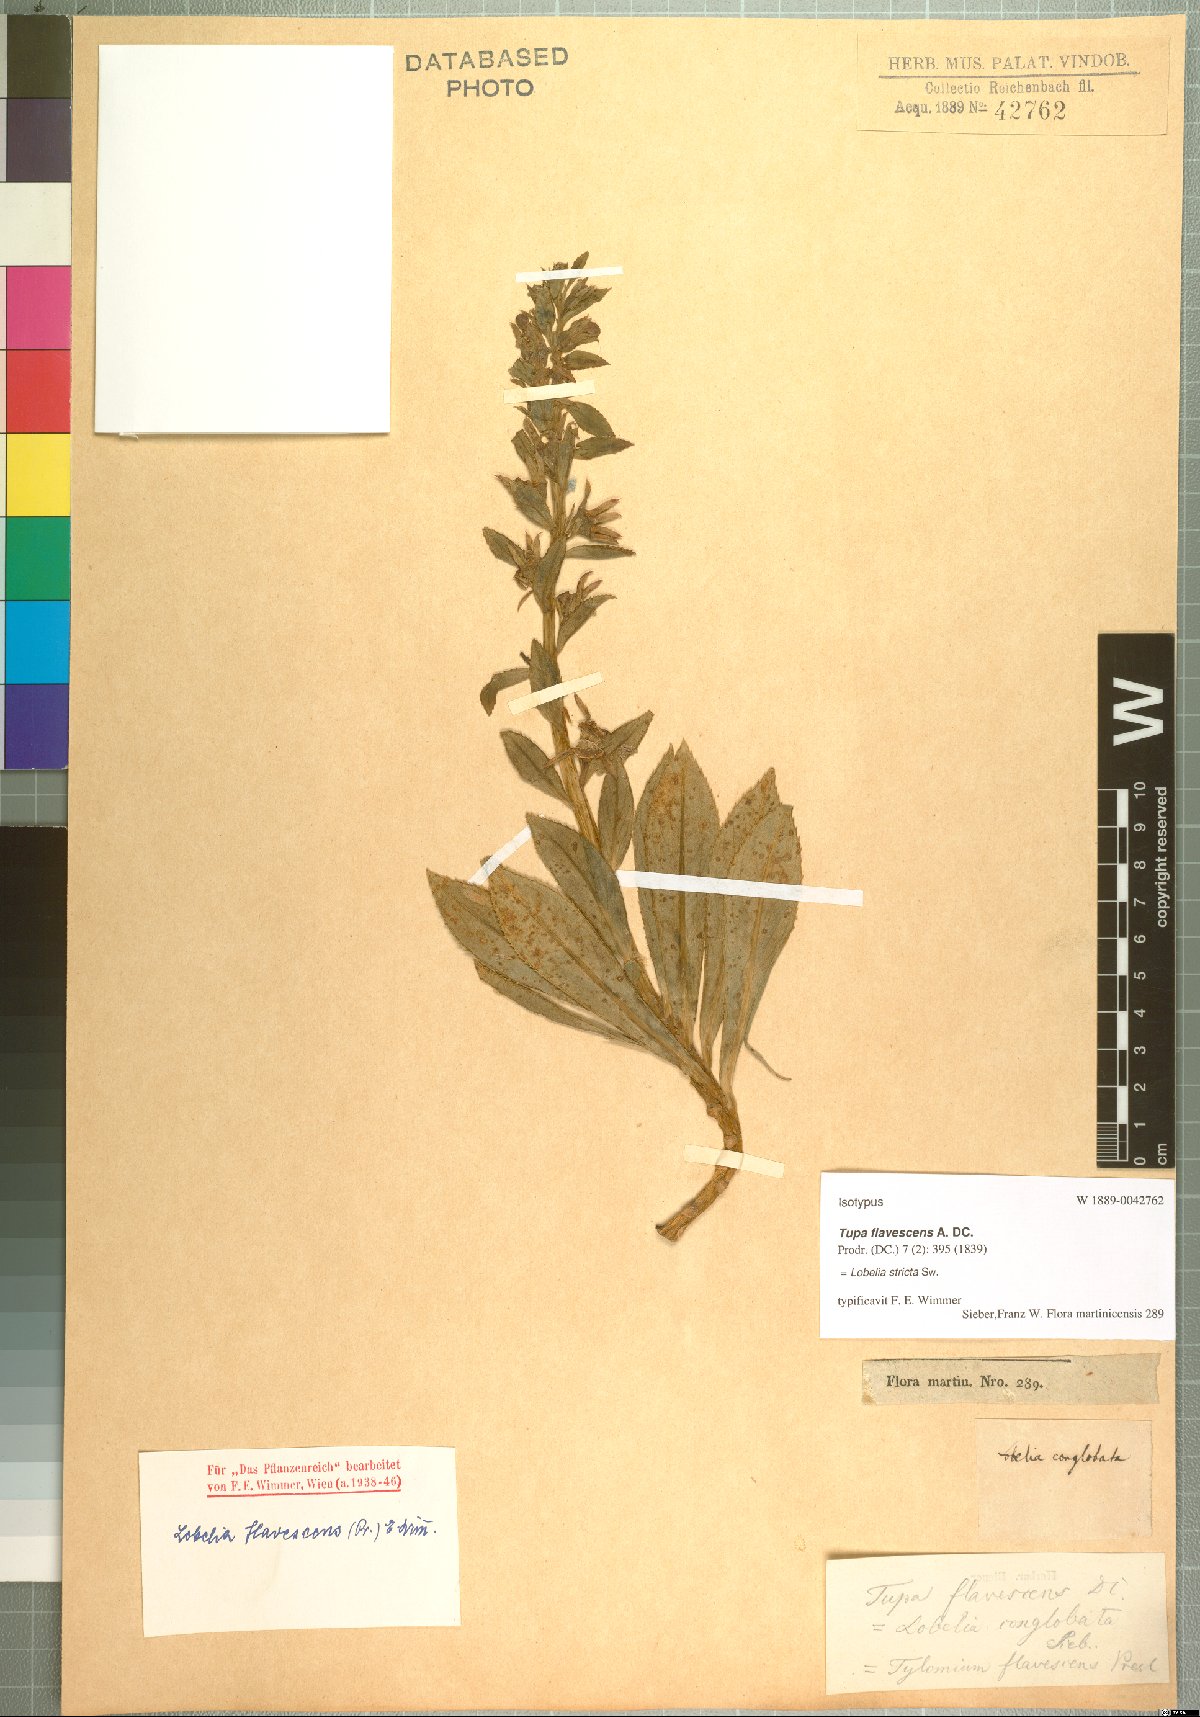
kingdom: Plantae
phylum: Tracheophyta
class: Magnoliopsida
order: Asterales
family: Campanulaceae
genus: Lobelia
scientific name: Lobelia stricta
